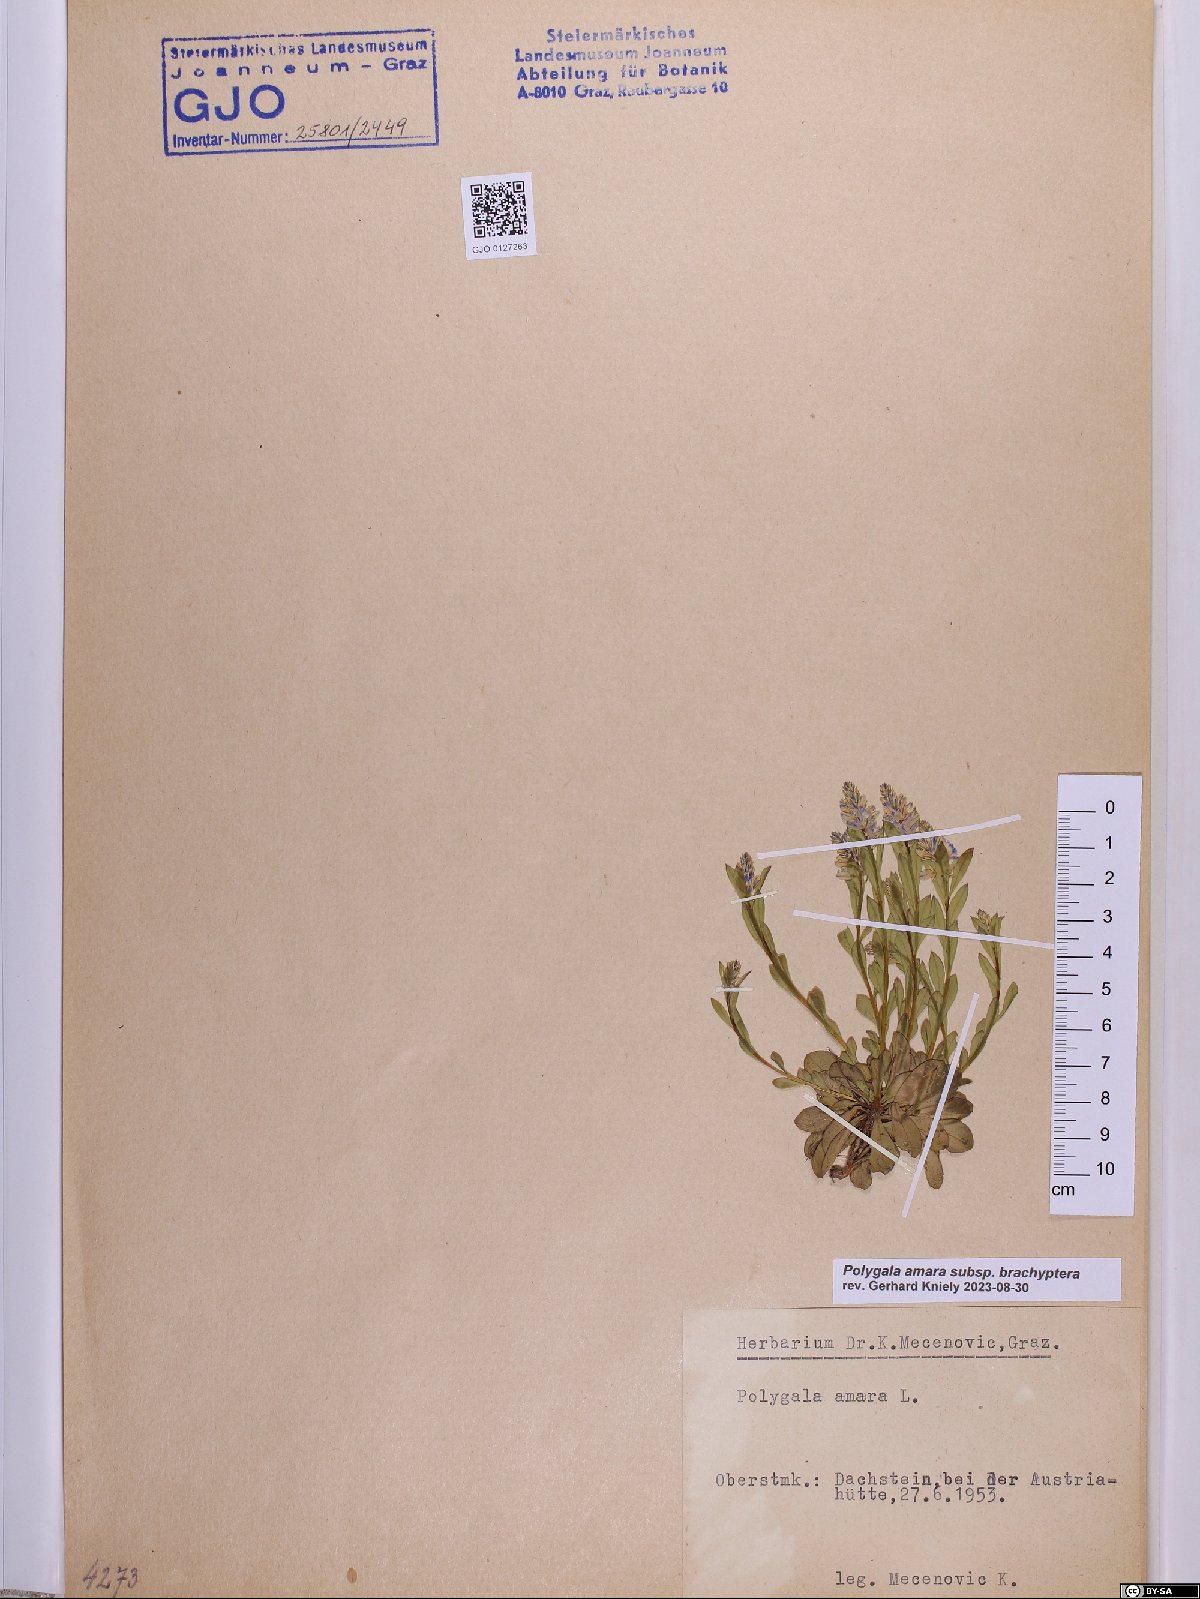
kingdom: Plantae
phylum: Tracheophyta
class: Magnoliopsida
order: Fabales
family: Polygalaceae
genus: Polygala
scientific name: Polygala amara
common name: Milkwort
